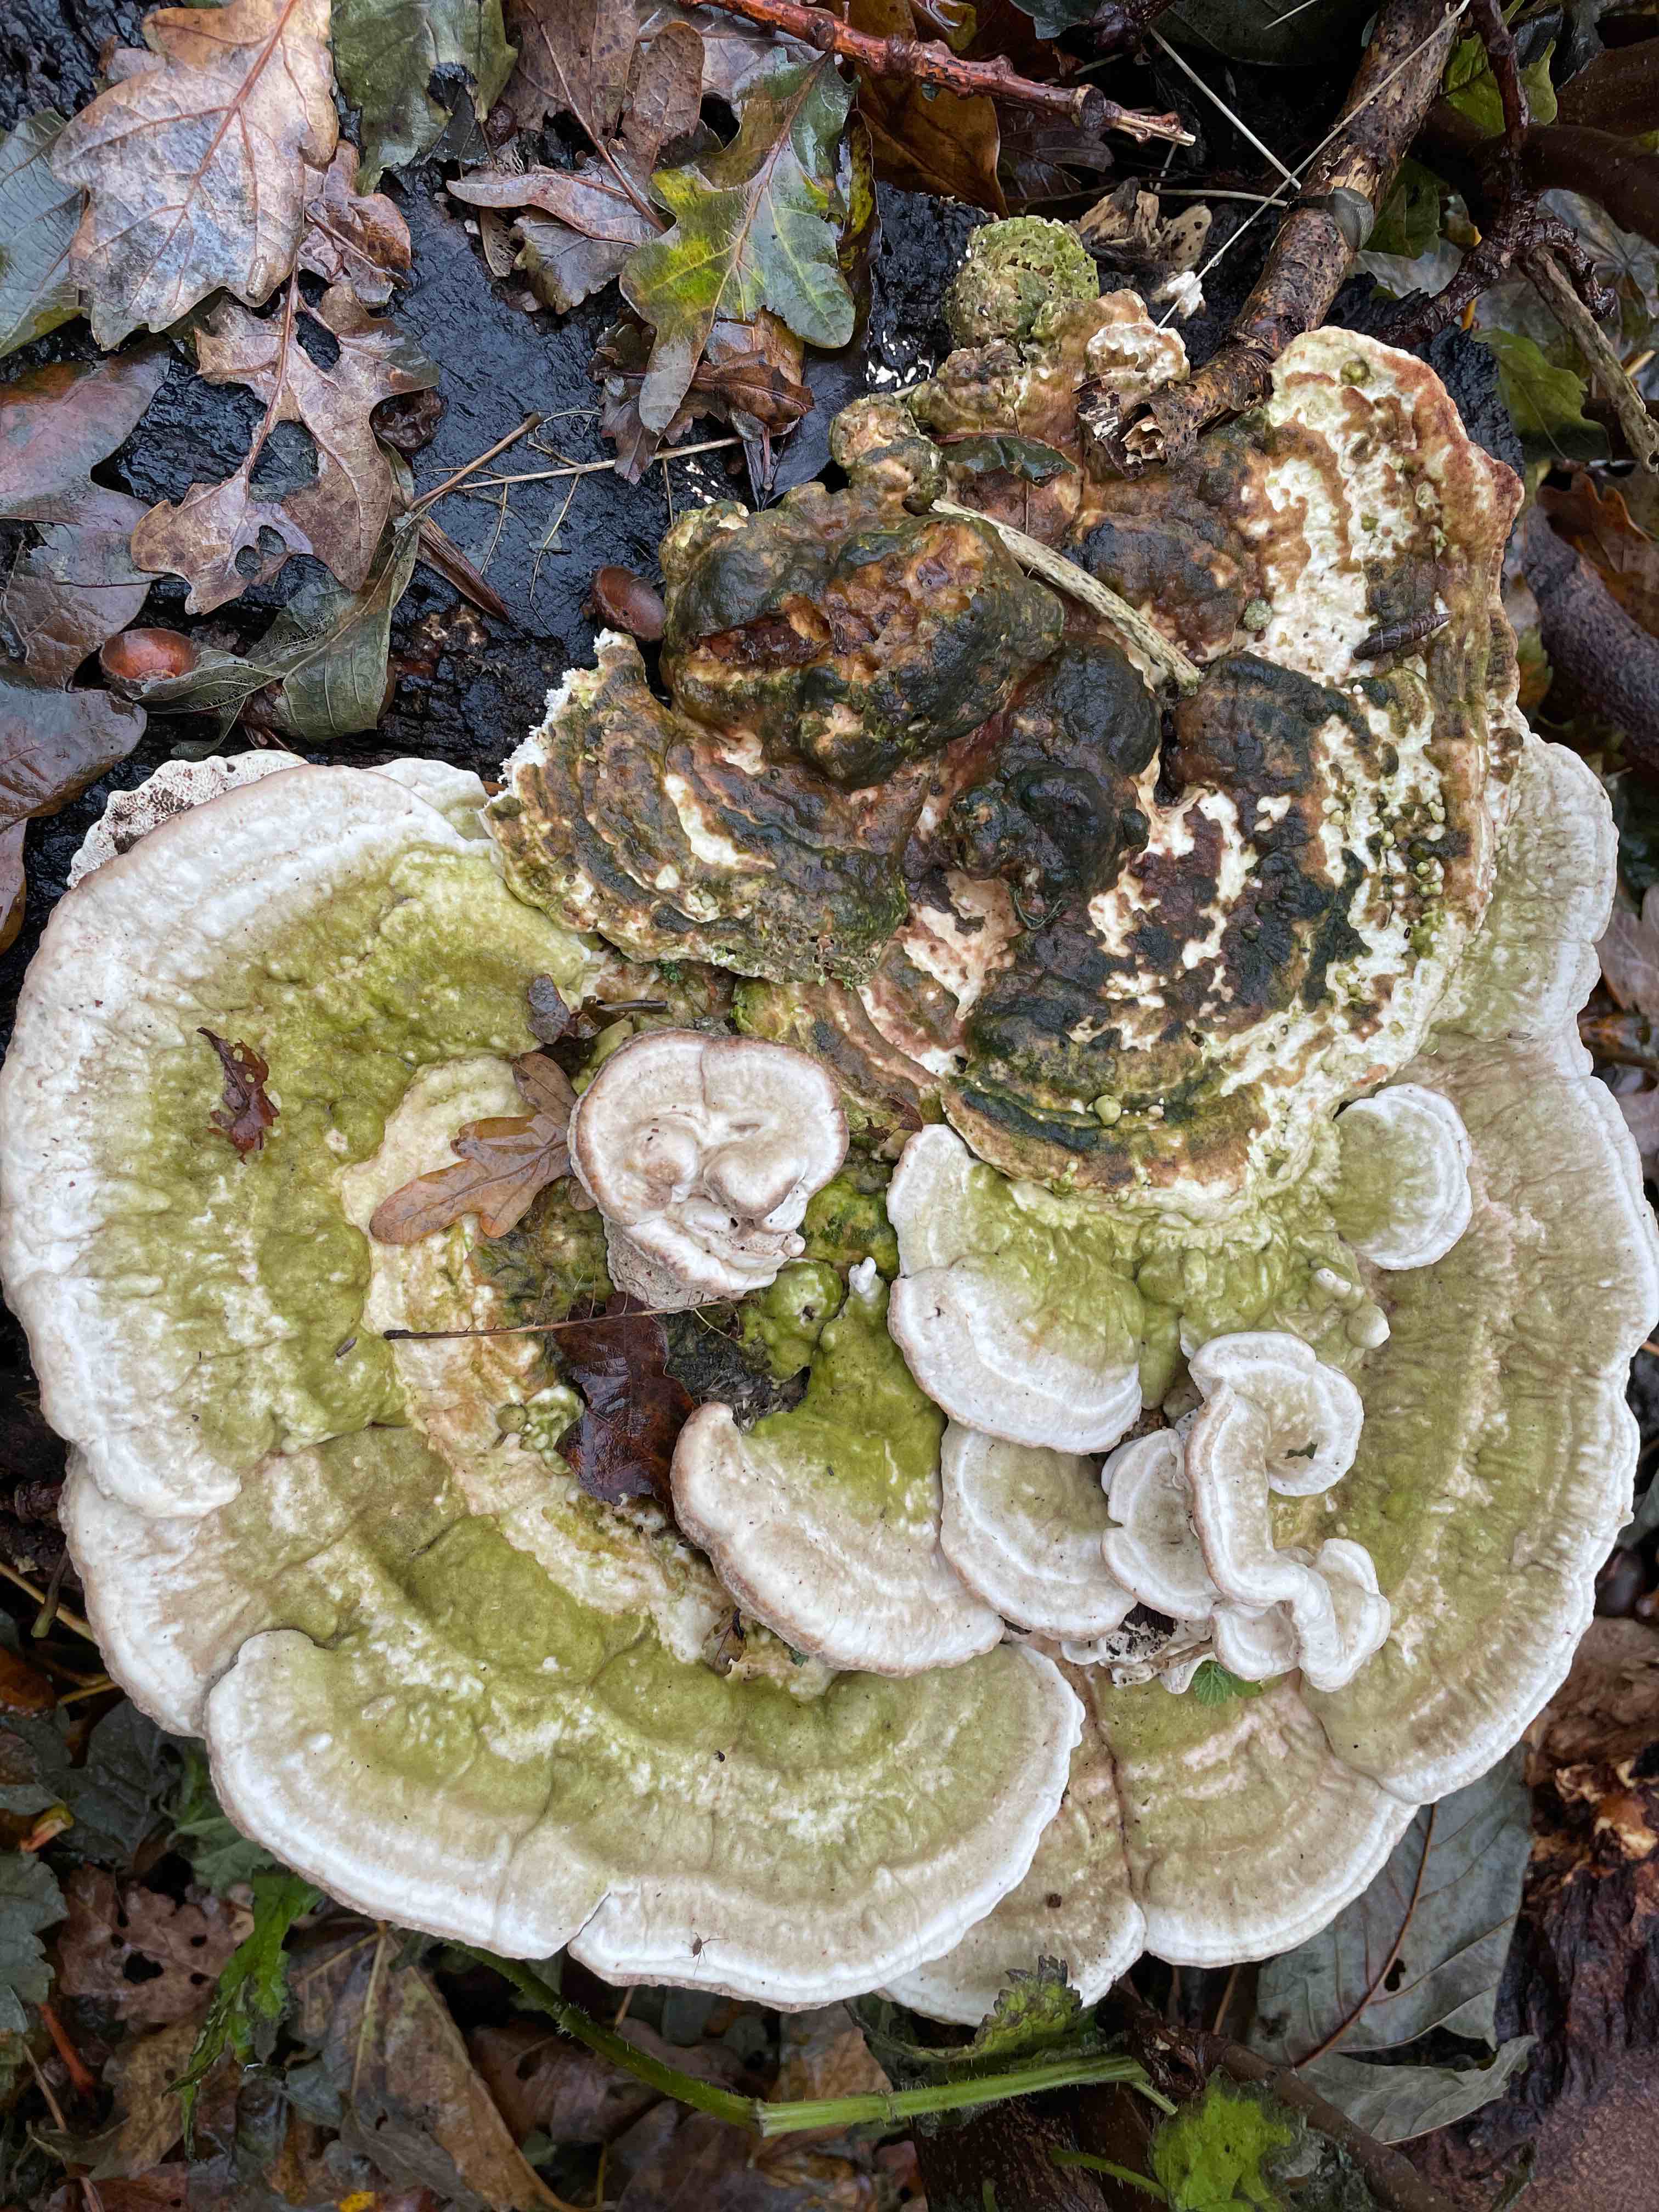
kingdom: Fungi
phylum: Basidiomycota
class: Agaricomycetes
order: Polyporales
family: Polyporaceae
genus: Trametes
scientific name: Trametes gibbosa
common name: puklet læderporesvamp
